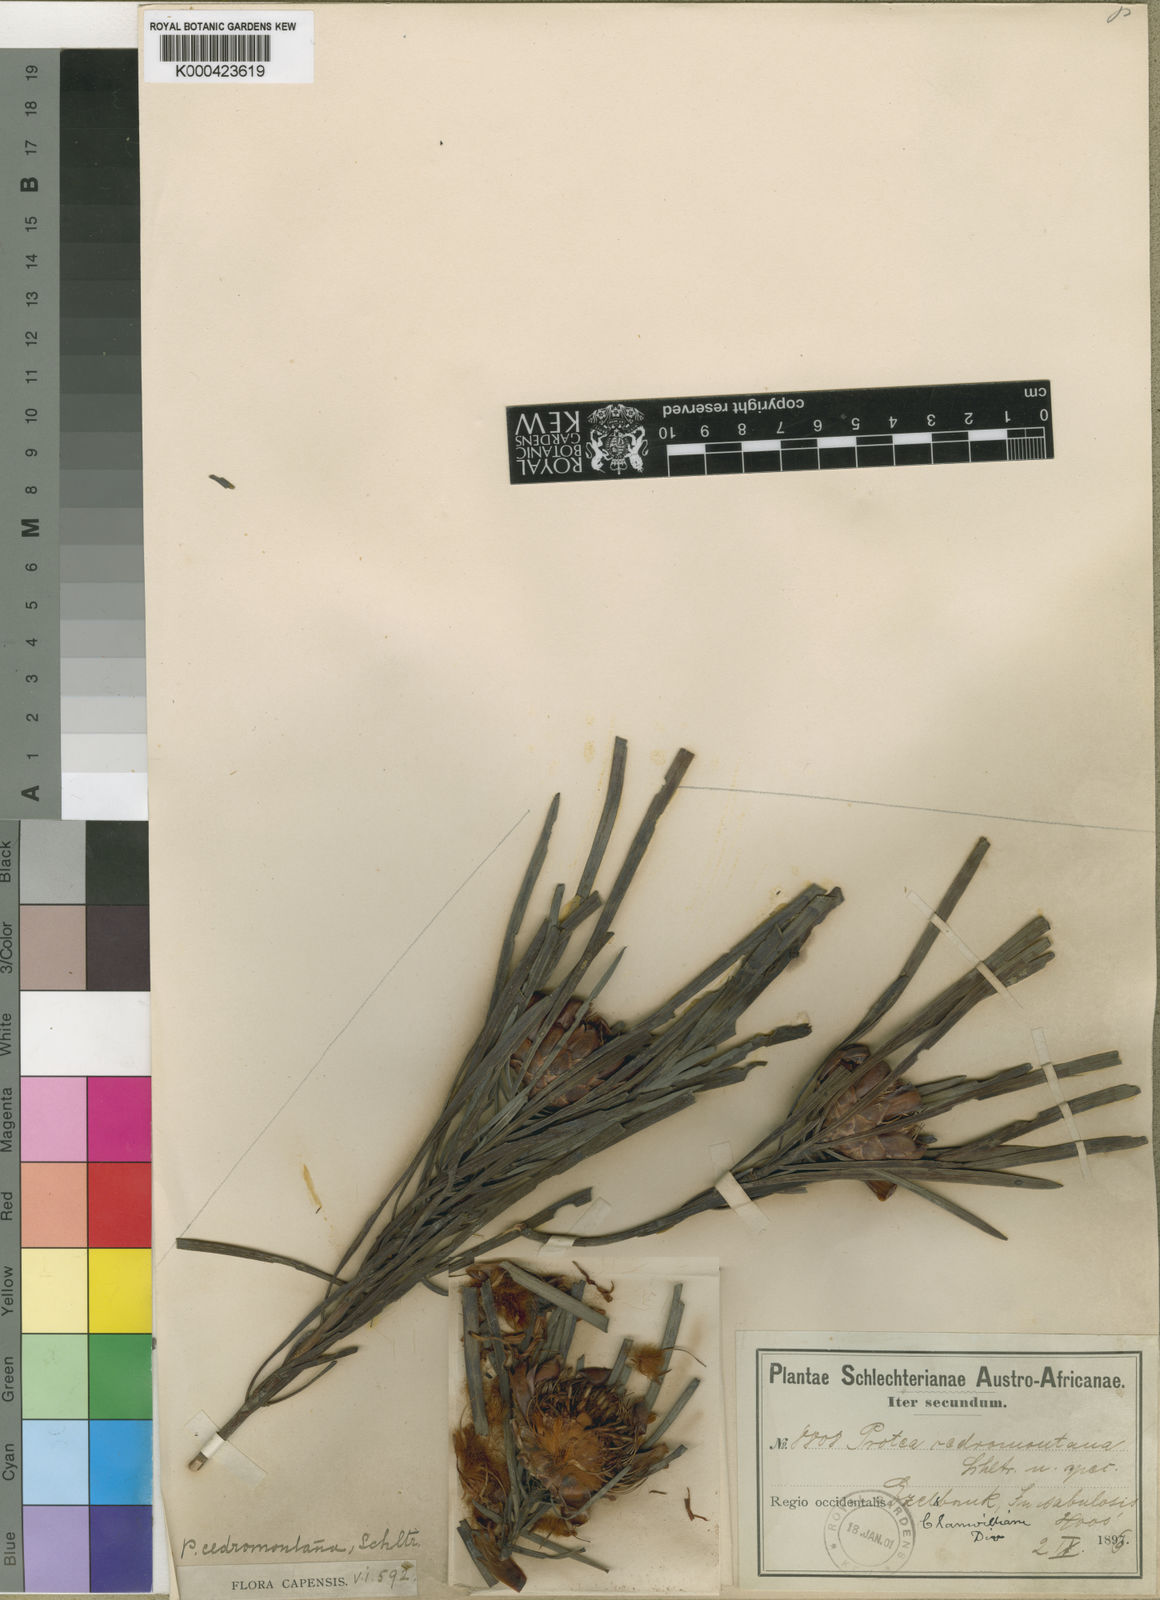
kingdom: Plantae
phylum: Tracheophyta
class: Magnoliopsida
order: Proteales
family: Proteaceae
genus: Protea
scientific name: Protea acuminata
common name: Black-rim sugarbush
